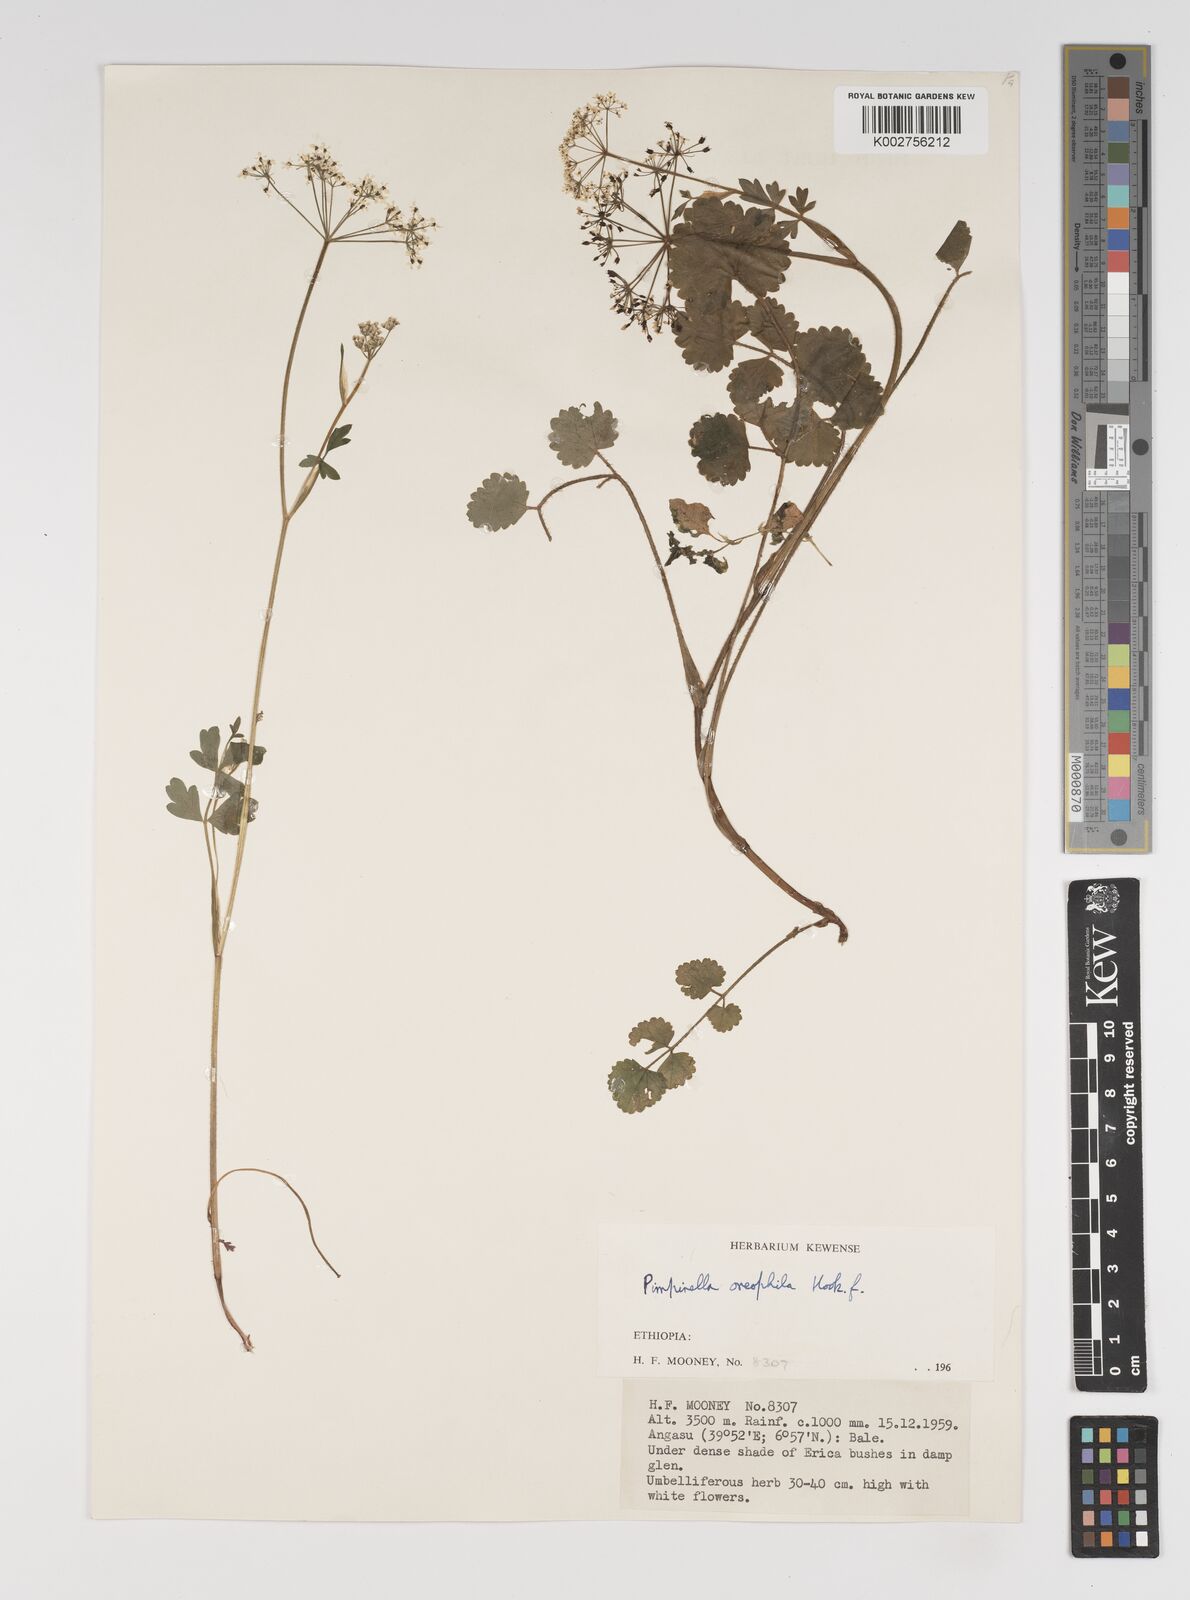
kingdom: Plantae
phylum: Tracheophyta
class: Magnoliopsida
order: Apiales
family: Apiaceae
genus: Pimpinella
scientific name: Pimpinella oreophila
